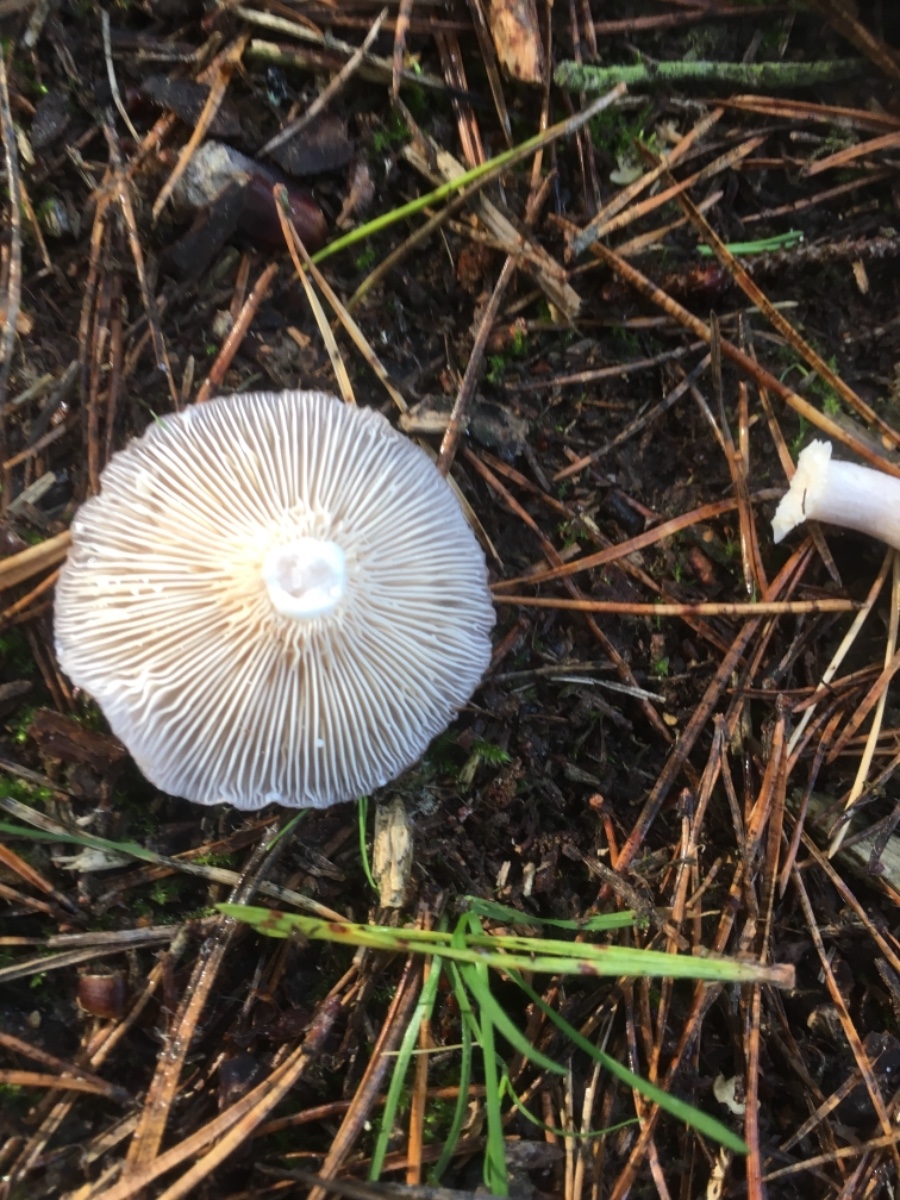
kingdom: Fungi
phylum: Basidiomycota
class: Agaricomycetes
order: Russulales
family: Russulaceae
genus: Lactarius
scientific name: Lactarius vietus
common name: violetgrå mælkehat
